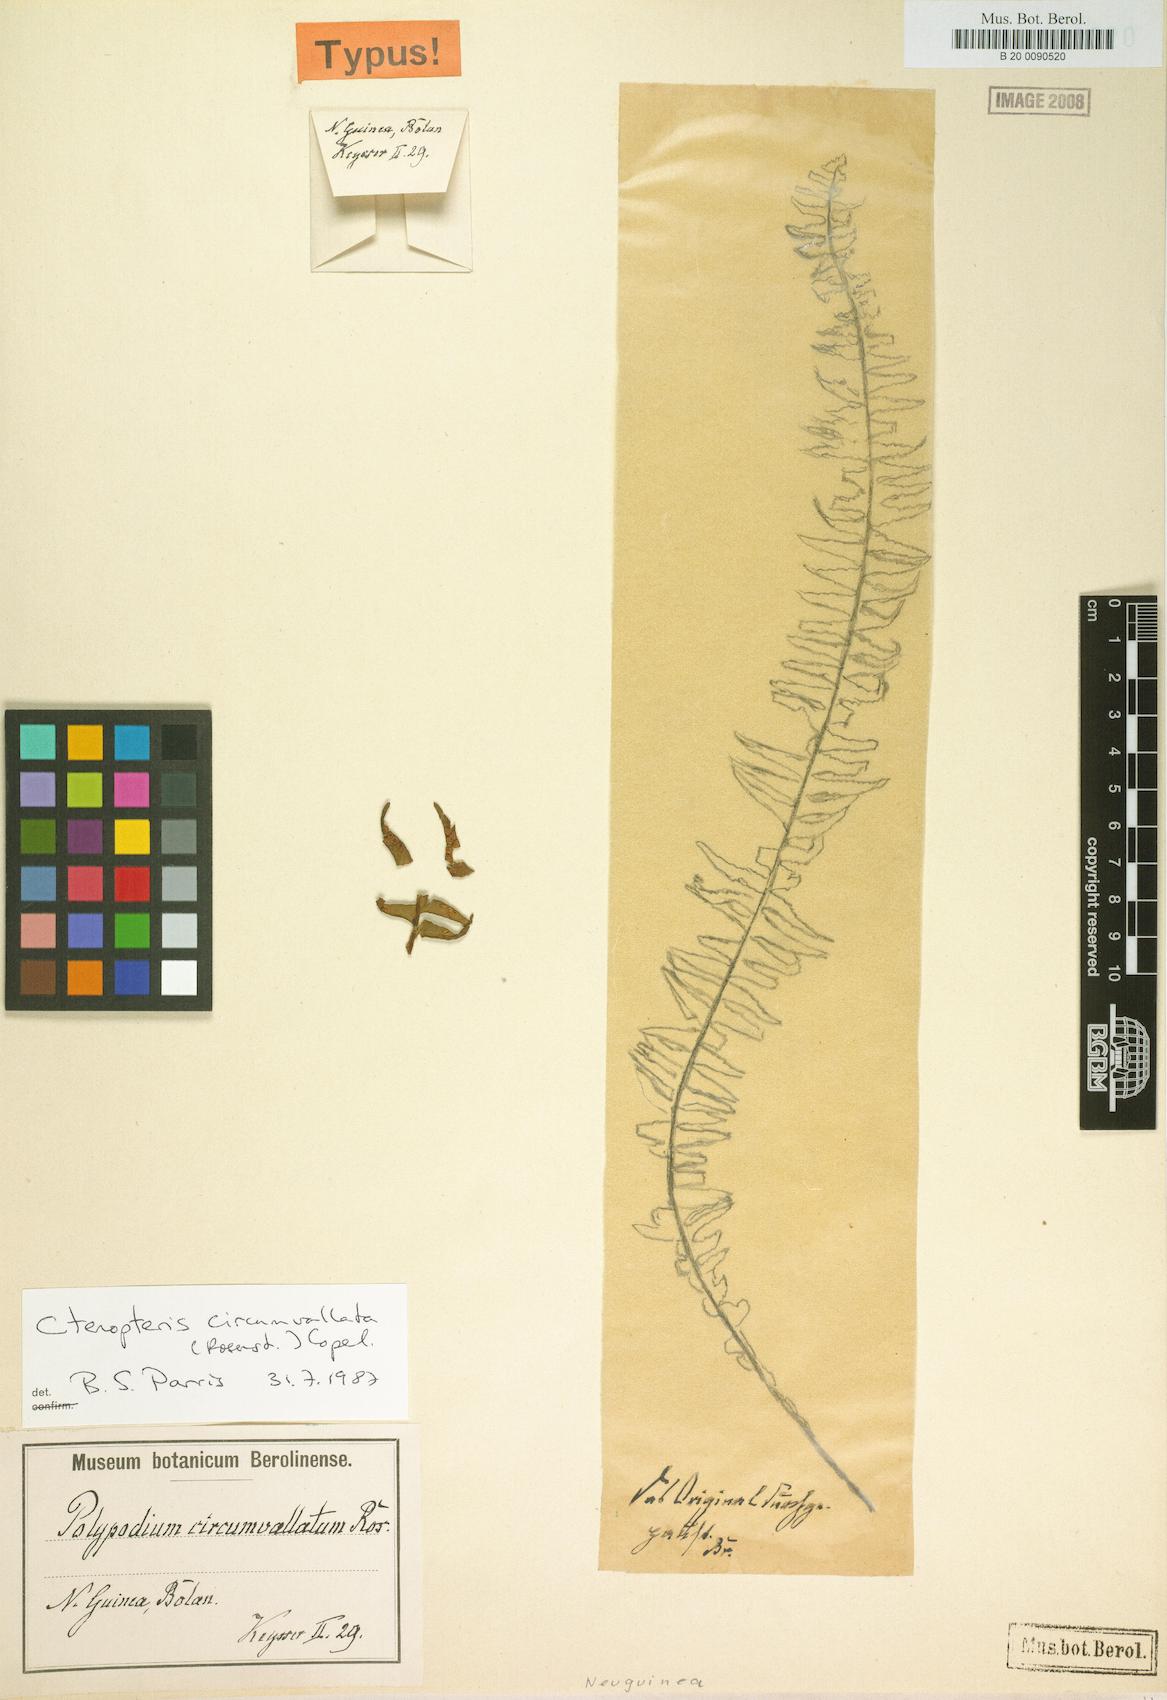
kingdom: Plantae
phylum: Tracheophyta
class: Polypodiopsida
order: Polypodiales
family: Polypodiaceae
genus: Prosaptia
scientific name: Prosaptia circumvallata
